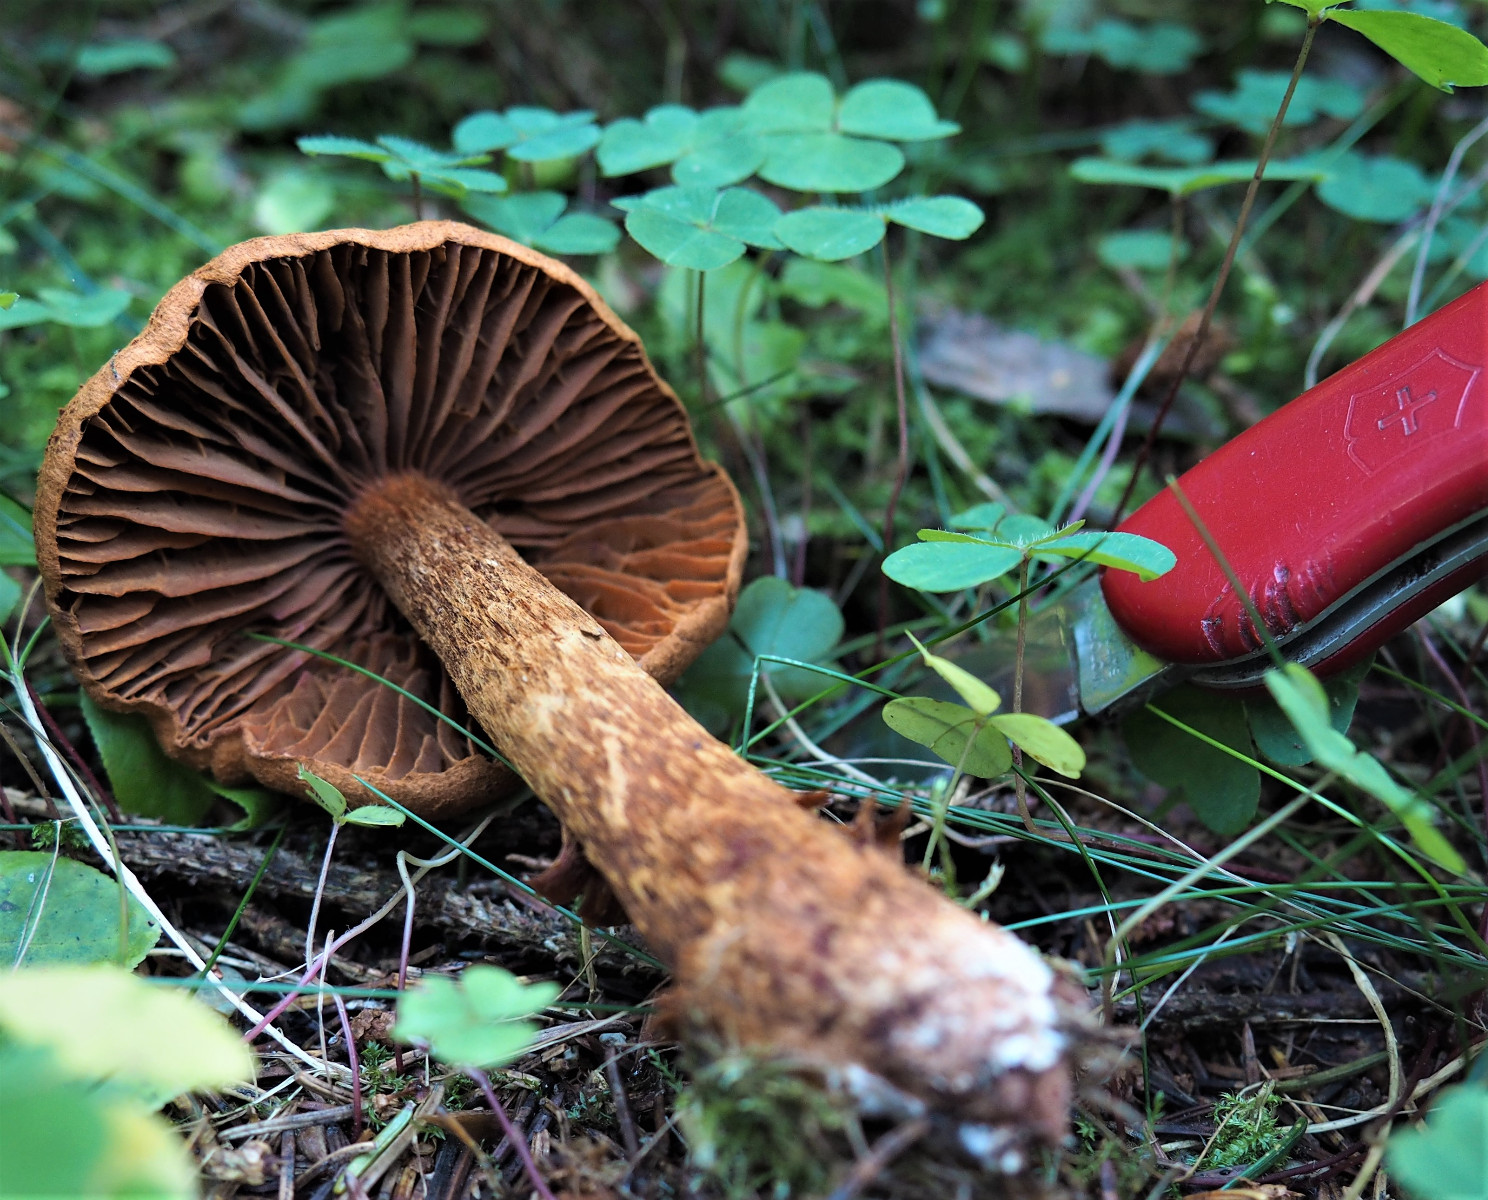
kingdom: Fungi
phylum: Basidiomycota
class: Agaricomycetes
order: Agaricales
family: Cortinariaceae
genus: Cortinarius
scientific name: Cortinarius rubellus
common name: puklet gift-slørhat
